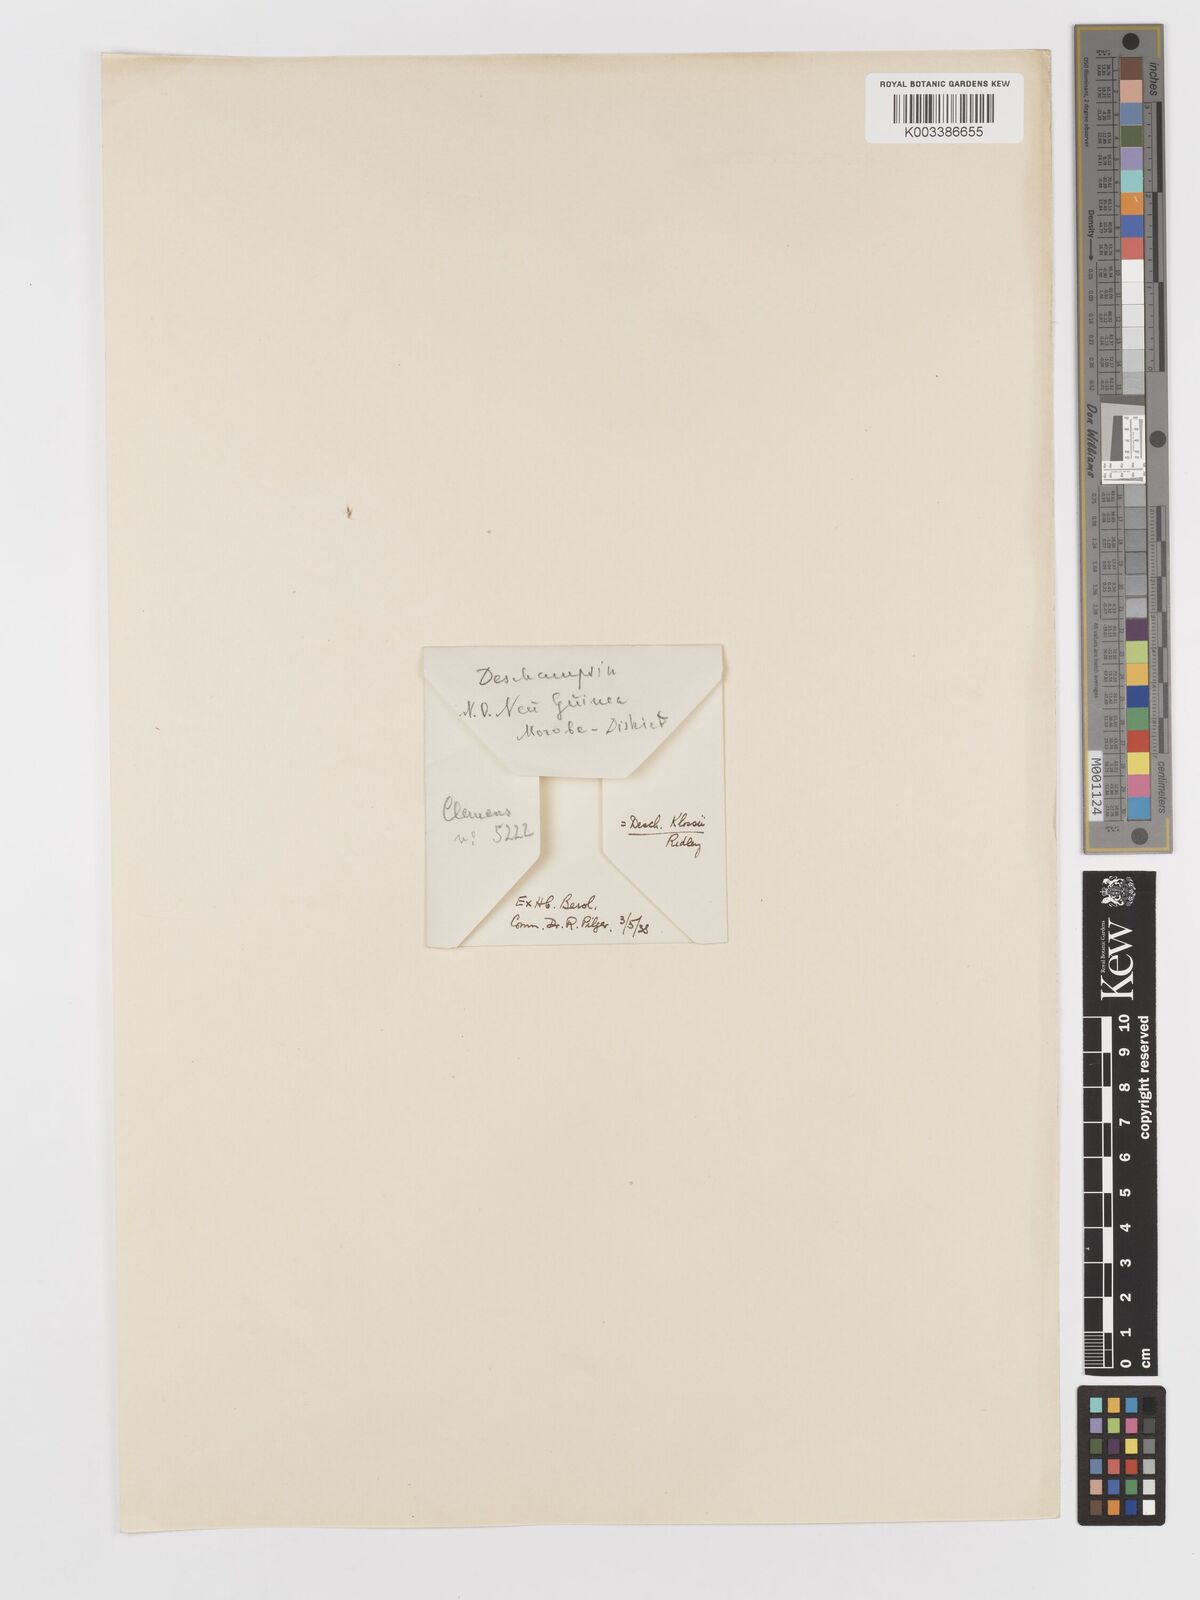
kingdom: Plantae
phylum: Tracheophyta
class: Liliopsida
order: Poales
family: Poaceae
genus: Deschampsia
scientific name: Deschampsia klossii
